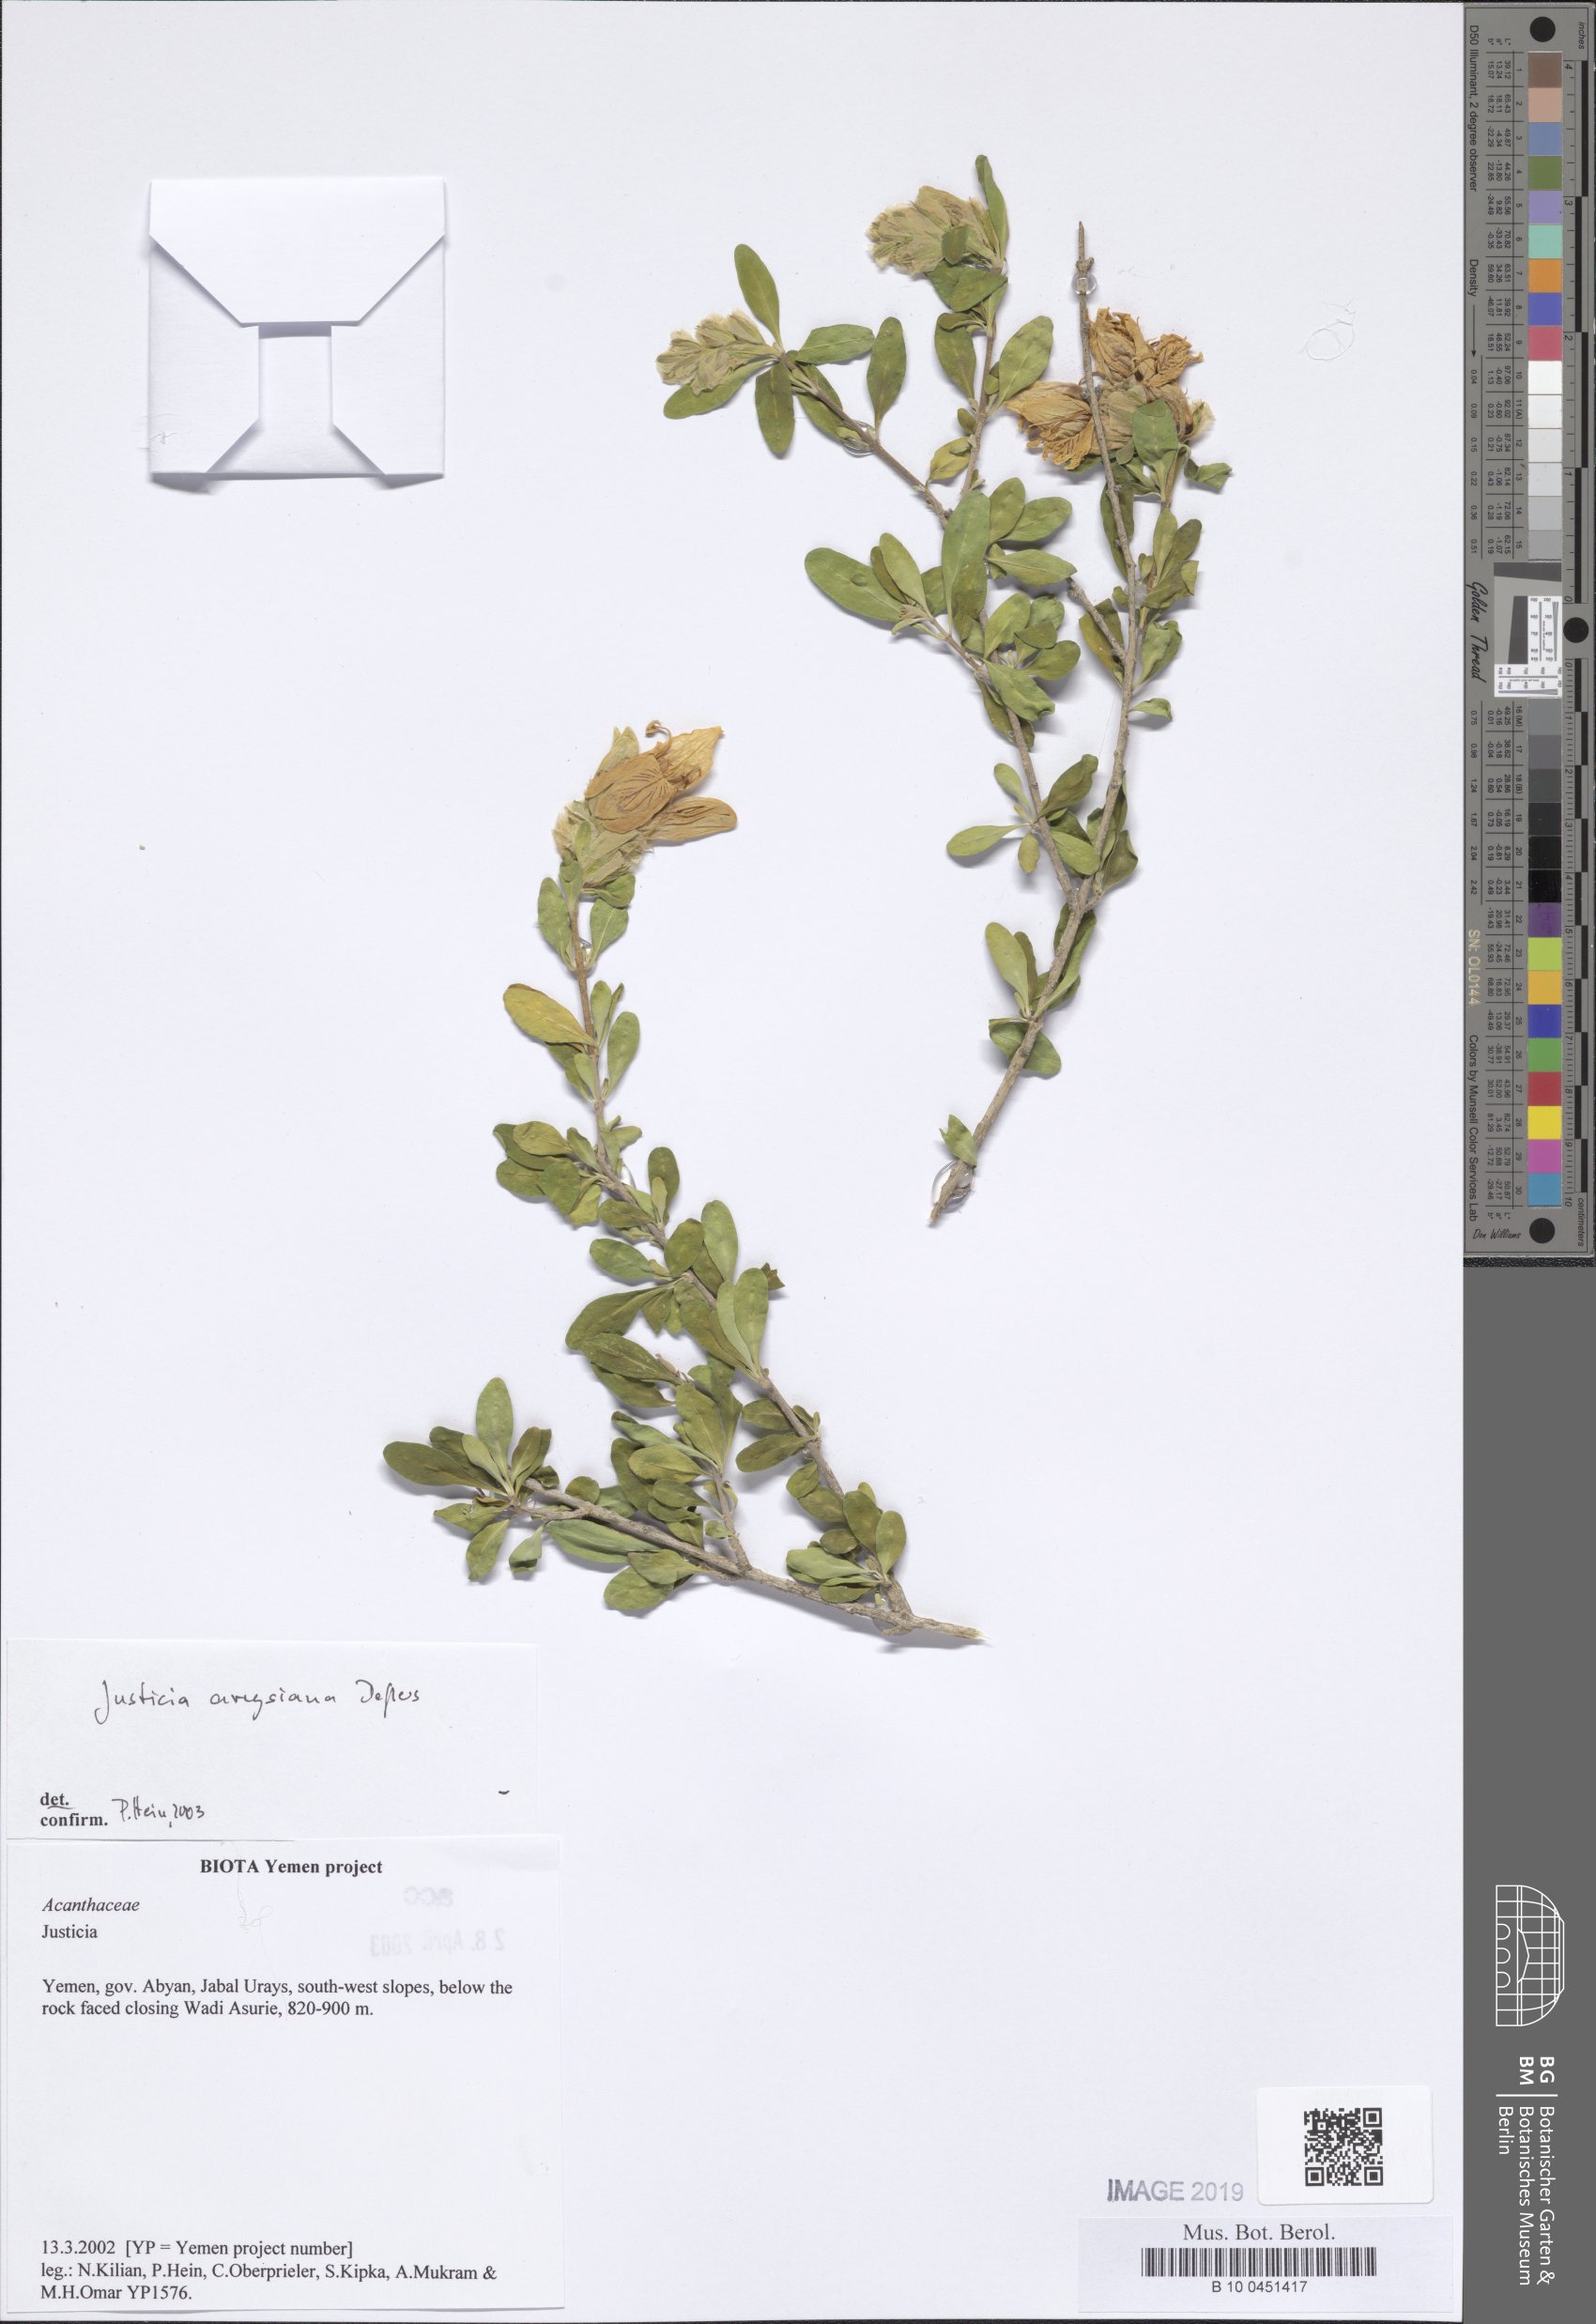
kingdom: Plantae
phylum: Tracheophyta
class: Magnoliopsida
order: Lamiales
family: Acanthaceae
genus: Justicia
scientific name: Justicia areysiana
